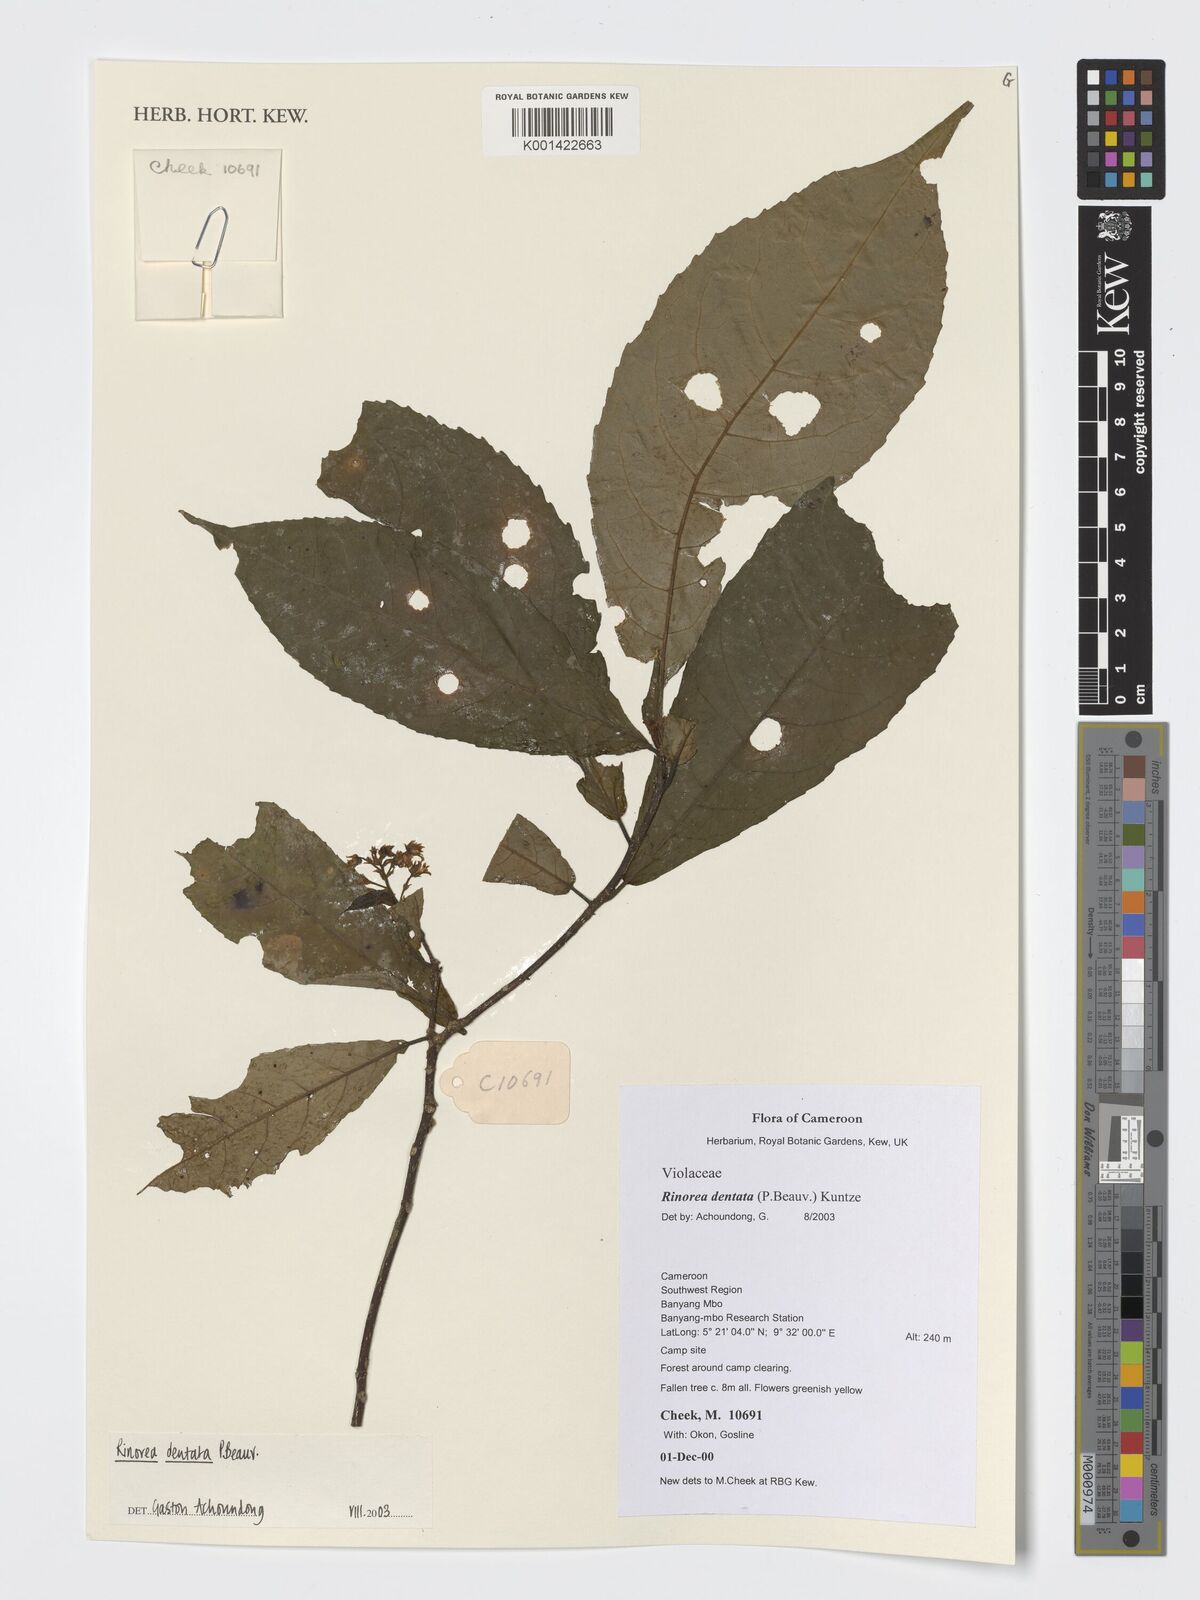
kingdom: Plantae
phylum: Tracheophyta
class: Magnoliopsida
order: Malpighiales
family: Violaceae
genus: Rinorea
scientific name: Rinorea dentata
